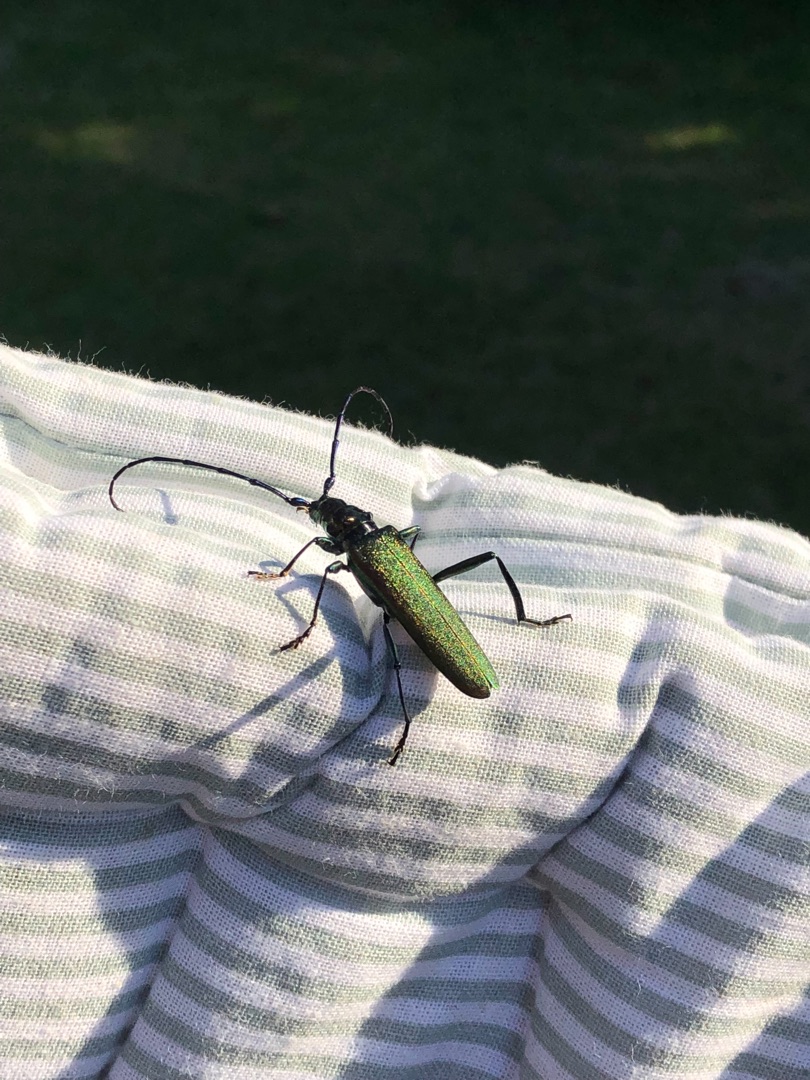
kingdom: Animalia
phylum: Arthropoda
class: Insecta
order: Coleoptera
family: Cerambycidae
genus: Aromia
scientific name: Aromia moschata
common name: Moskusbuk
